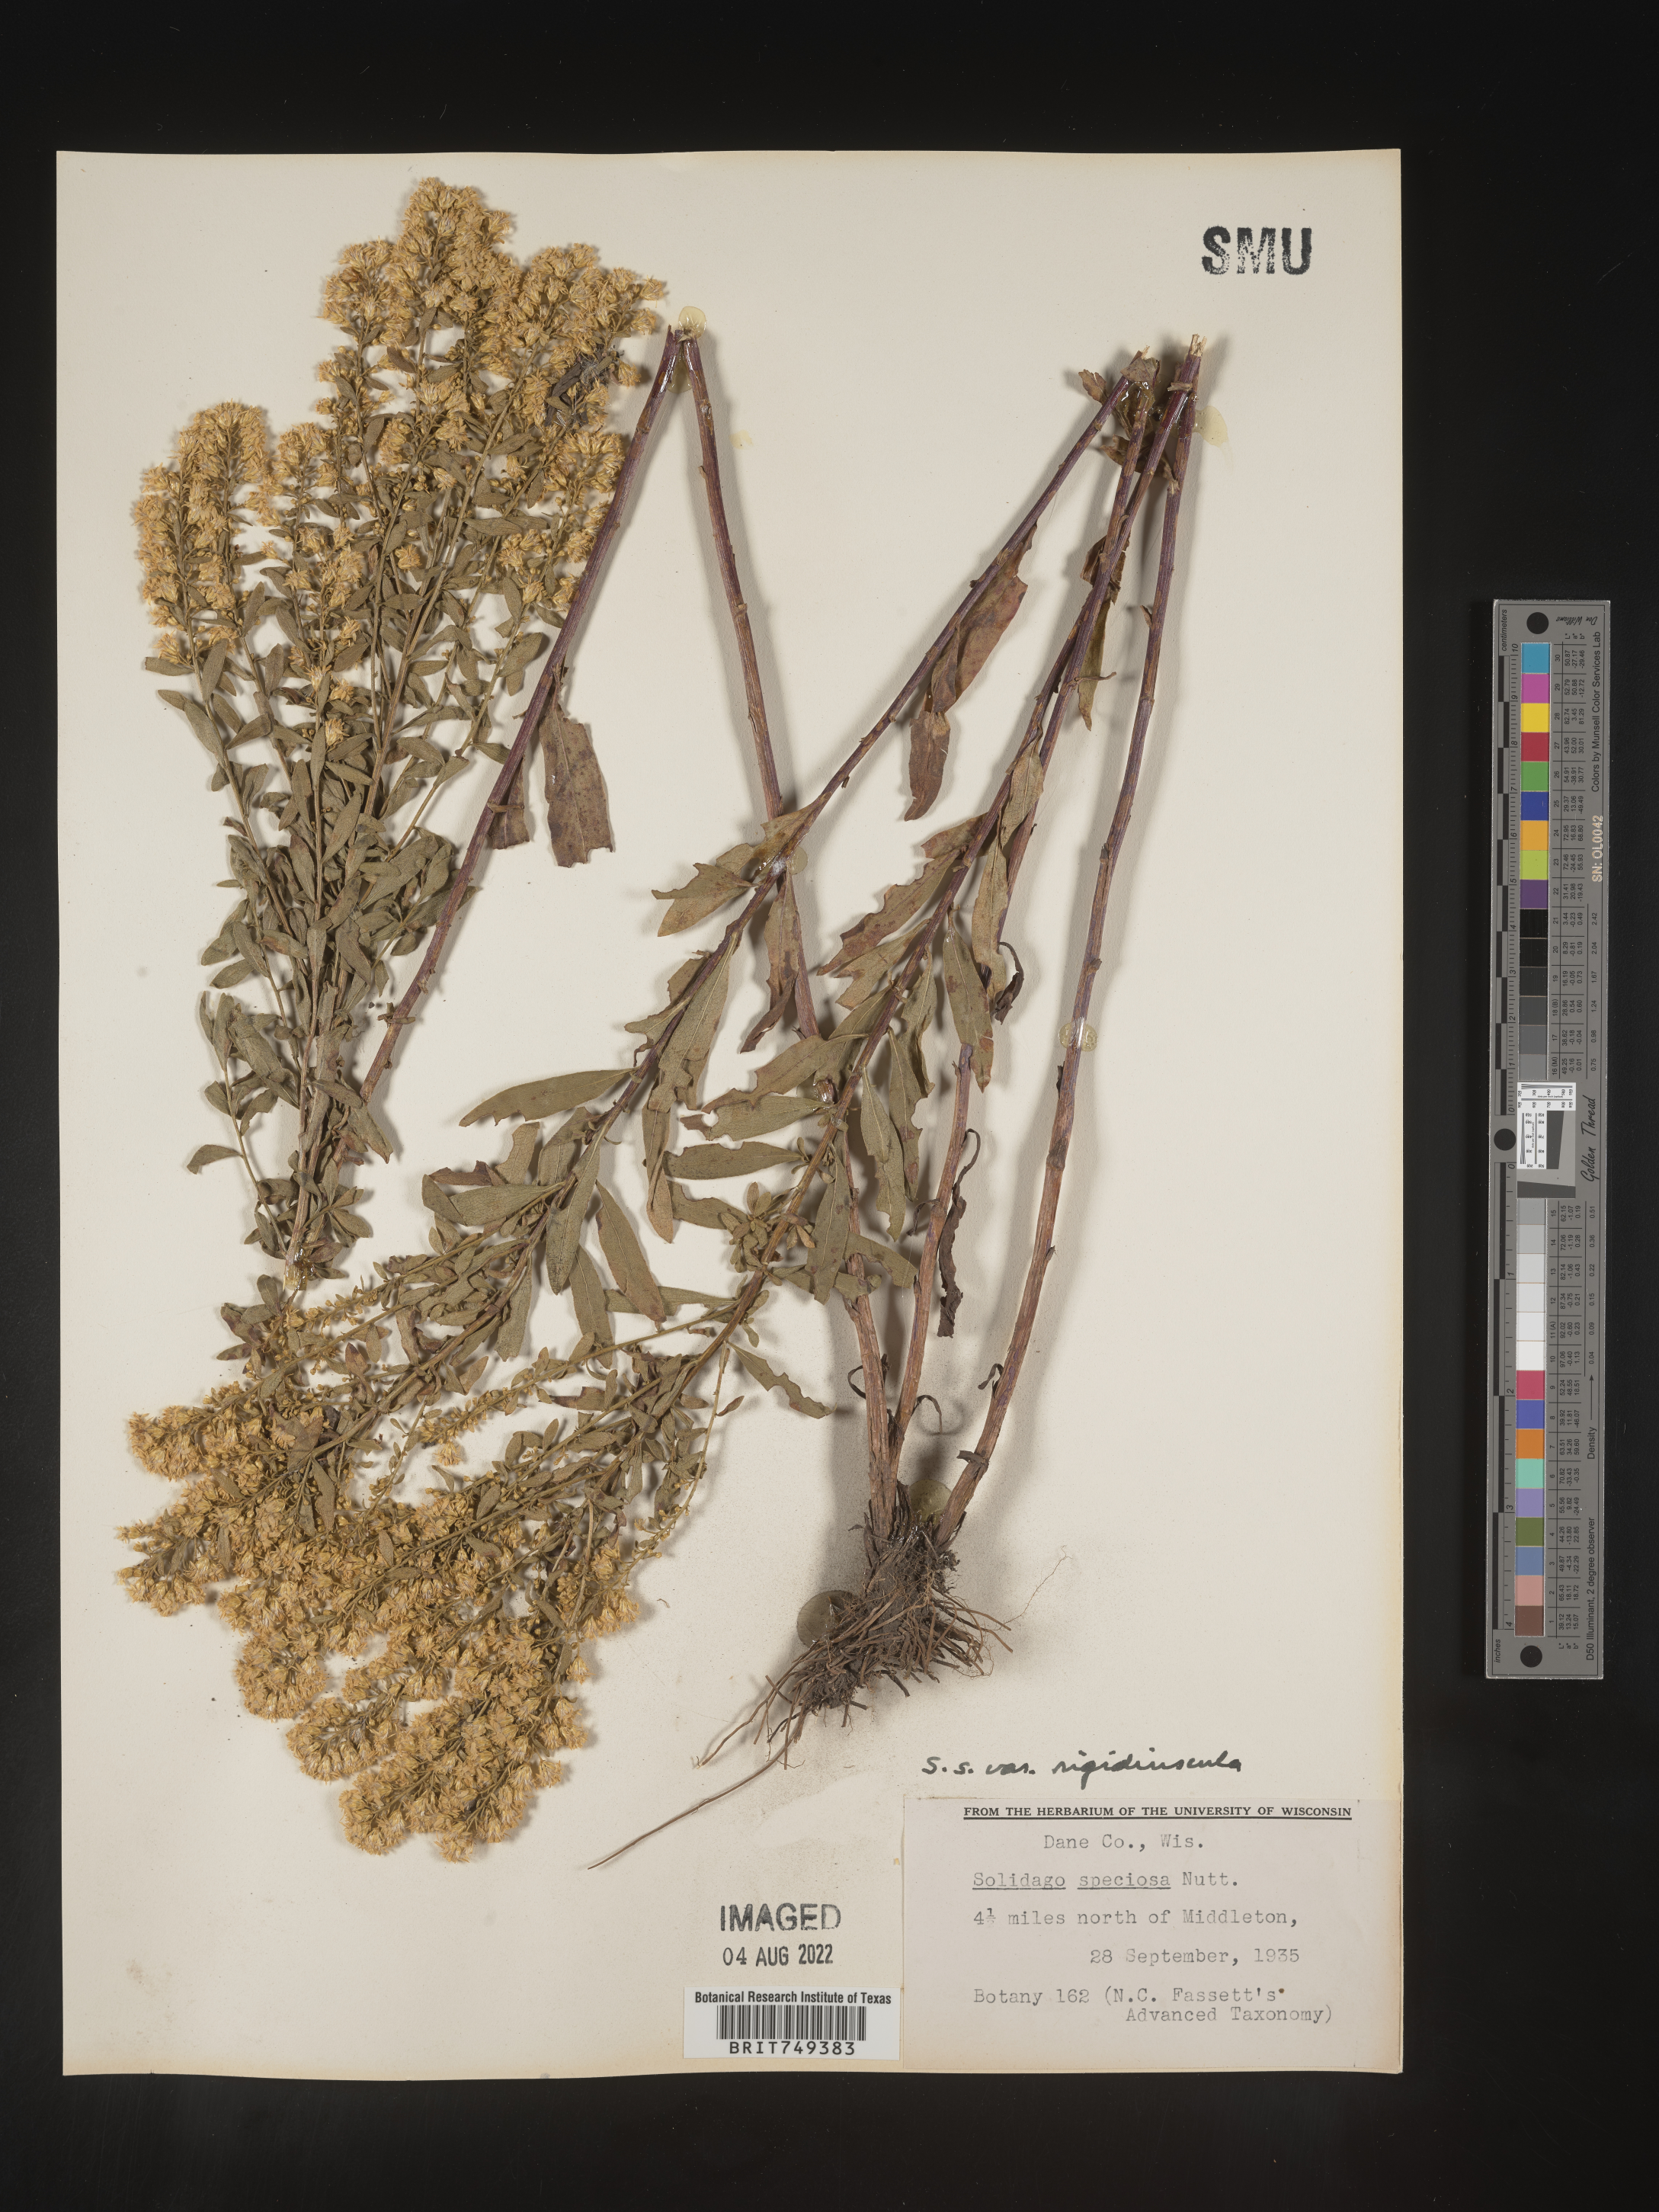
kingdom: Plantae
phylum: Tracheophyta
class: Magnoliopsida
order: Asterales
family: Asteraceae
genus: Solidago
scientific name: Solidago speciosa
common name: Showy goldenrod
